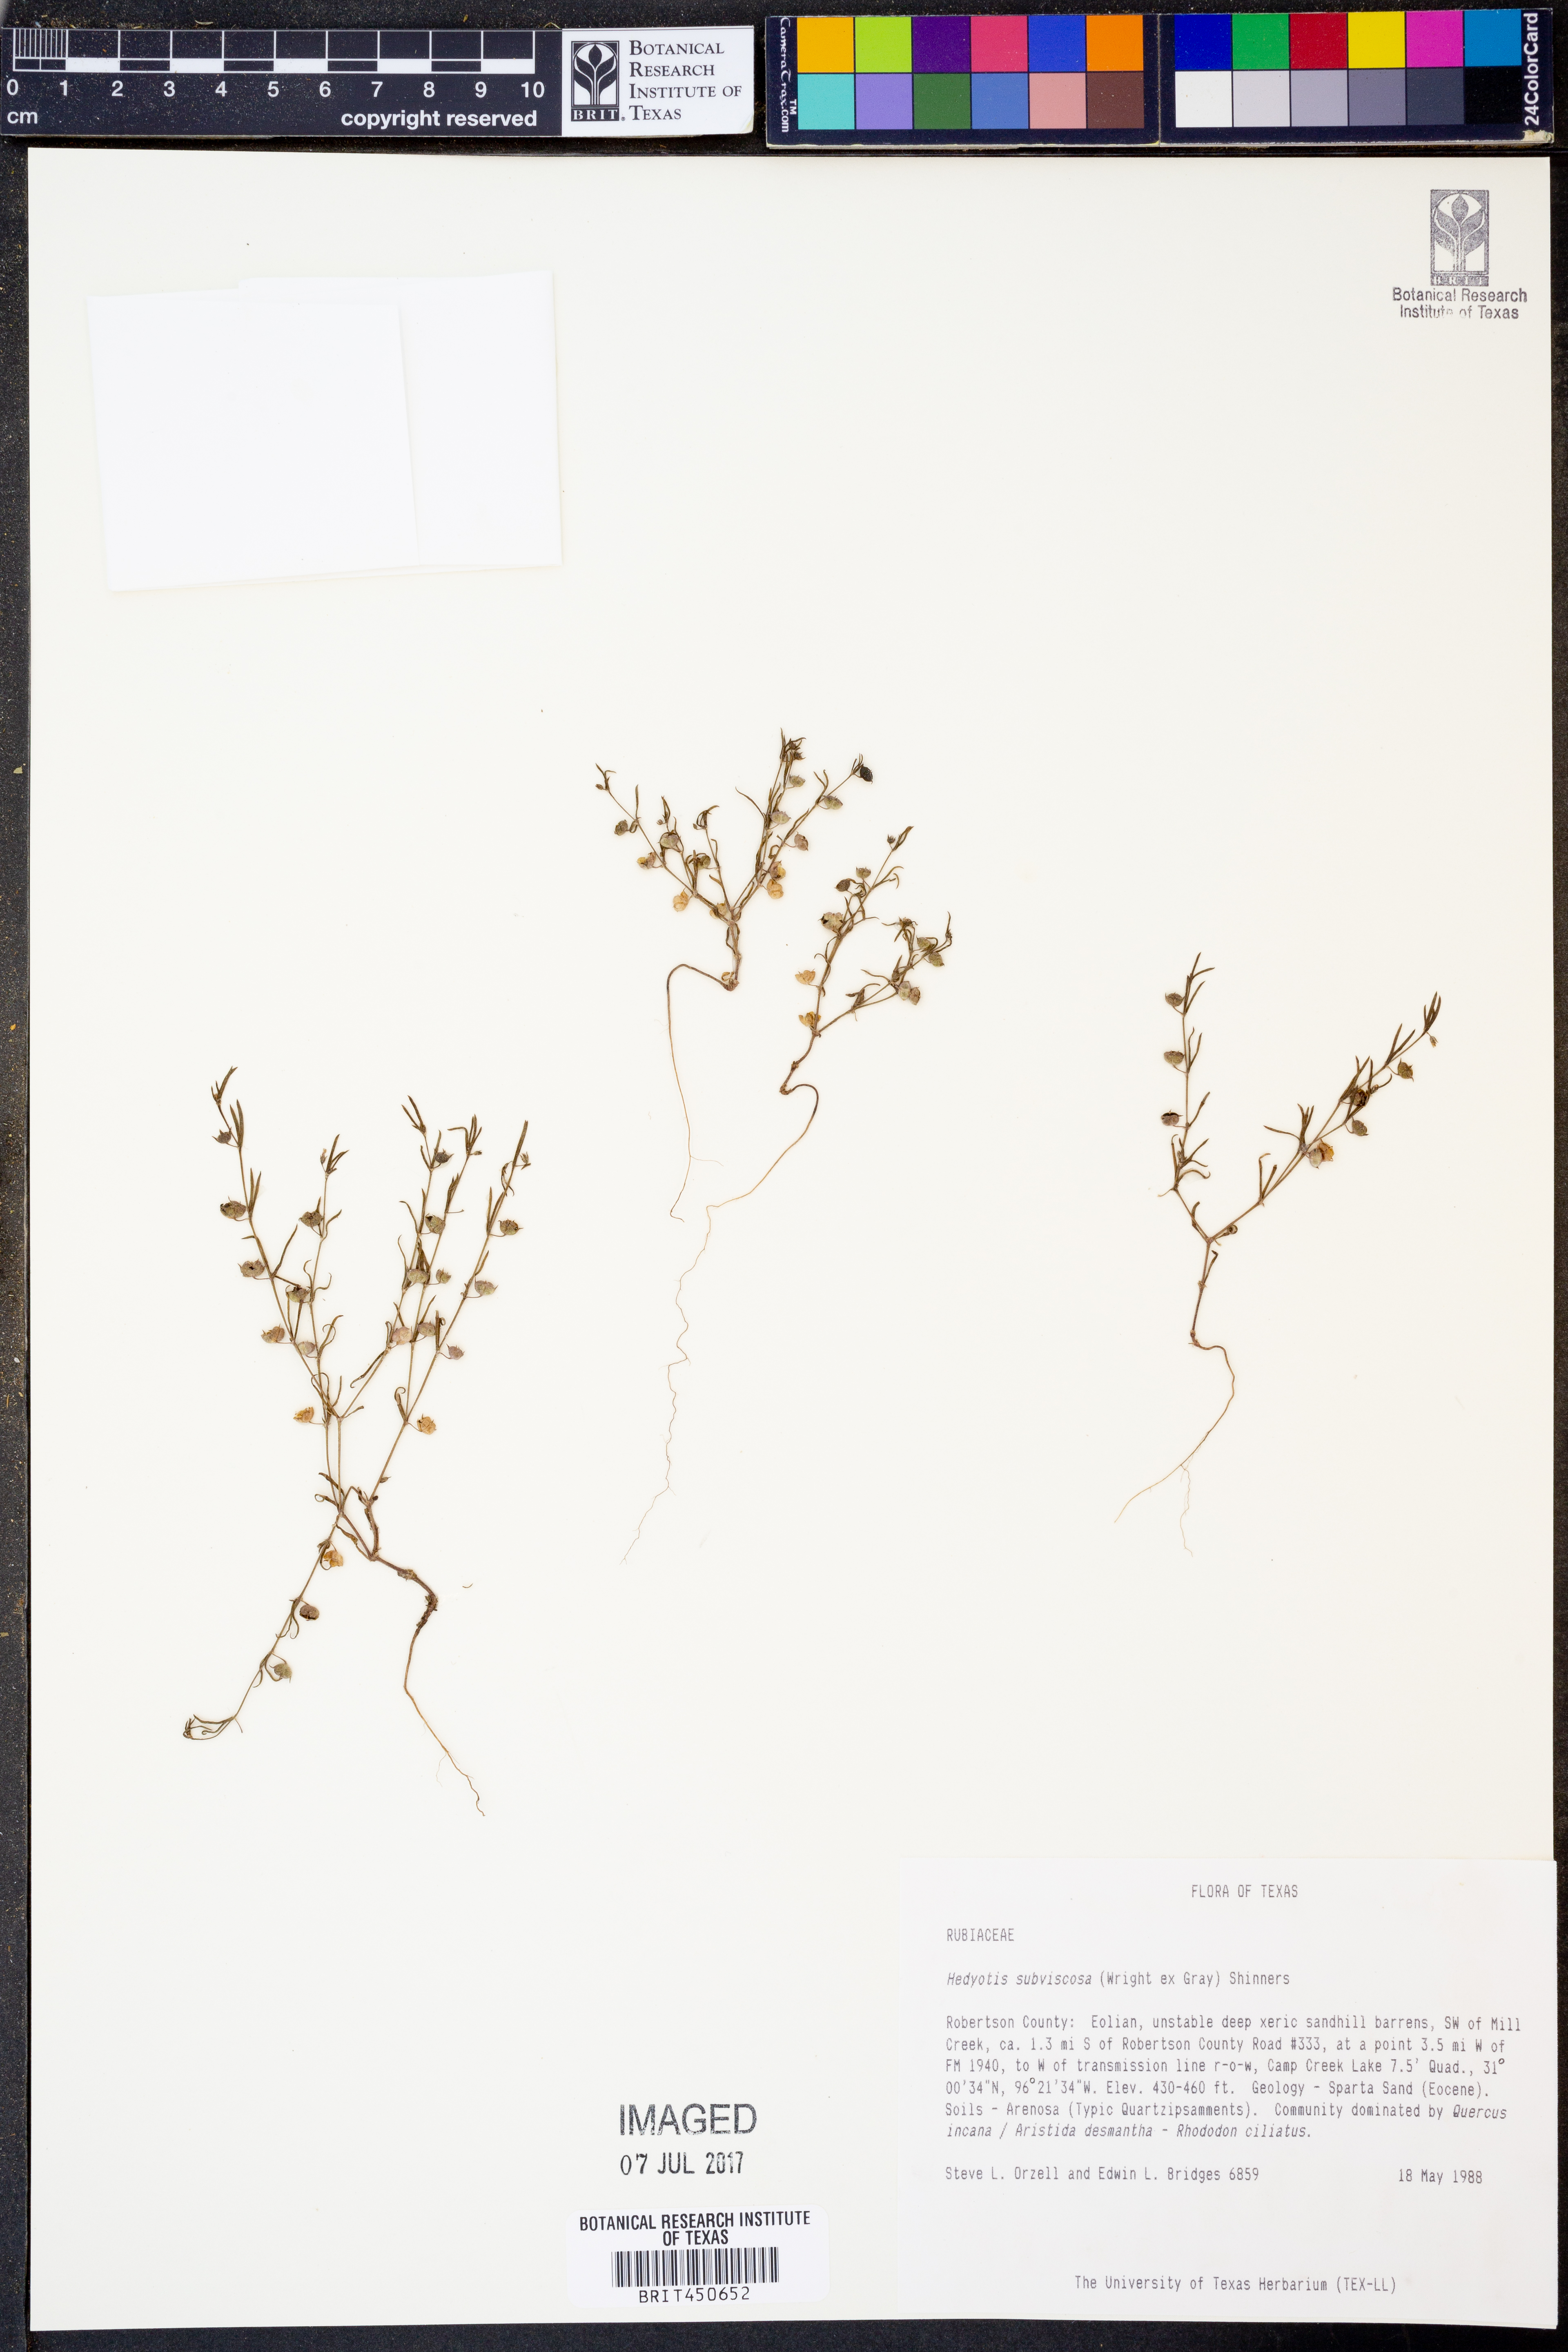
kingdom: Plantae
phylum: Tracheophyta
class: Magnoliopsida
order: Gentianales
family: Rubiaceae
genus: Houstonia
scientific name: Houstonia subviscosa
